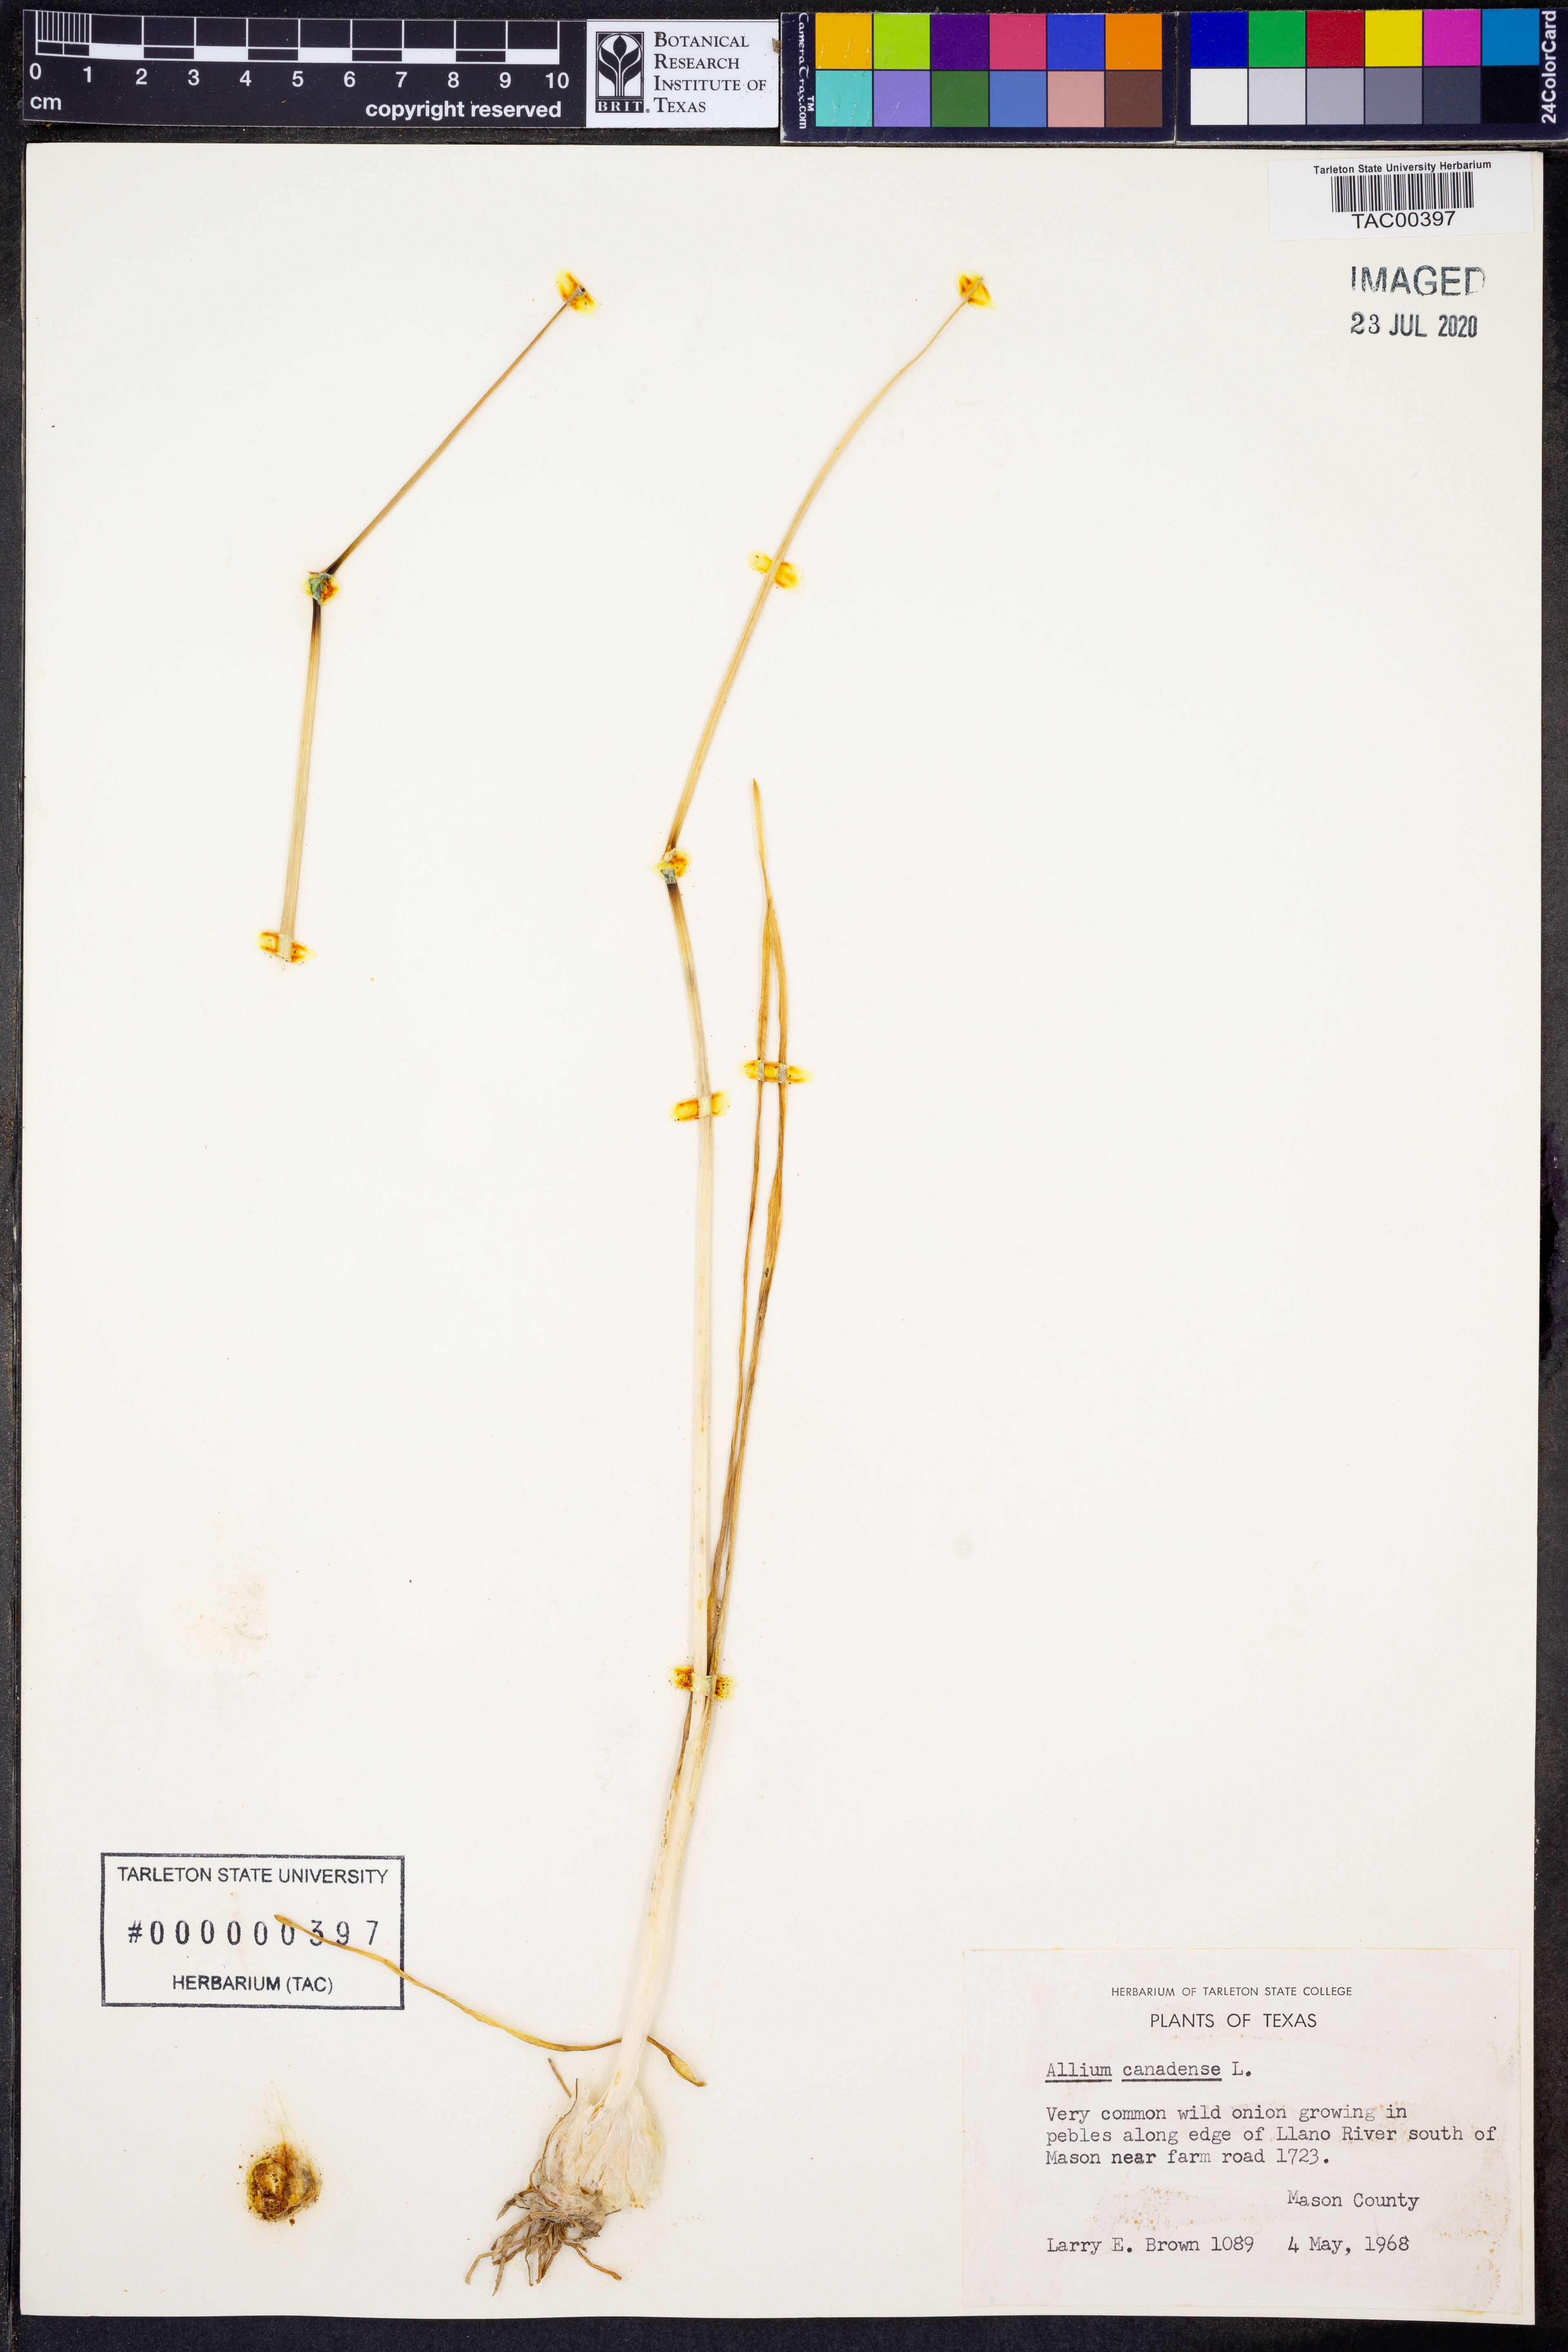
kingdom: Plantae
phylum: Tracheophyta
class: Liliopsida
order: Asparagales
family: Amaryllidaceae
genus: Allium
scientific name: Allium canadense
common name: Meadow garlic
